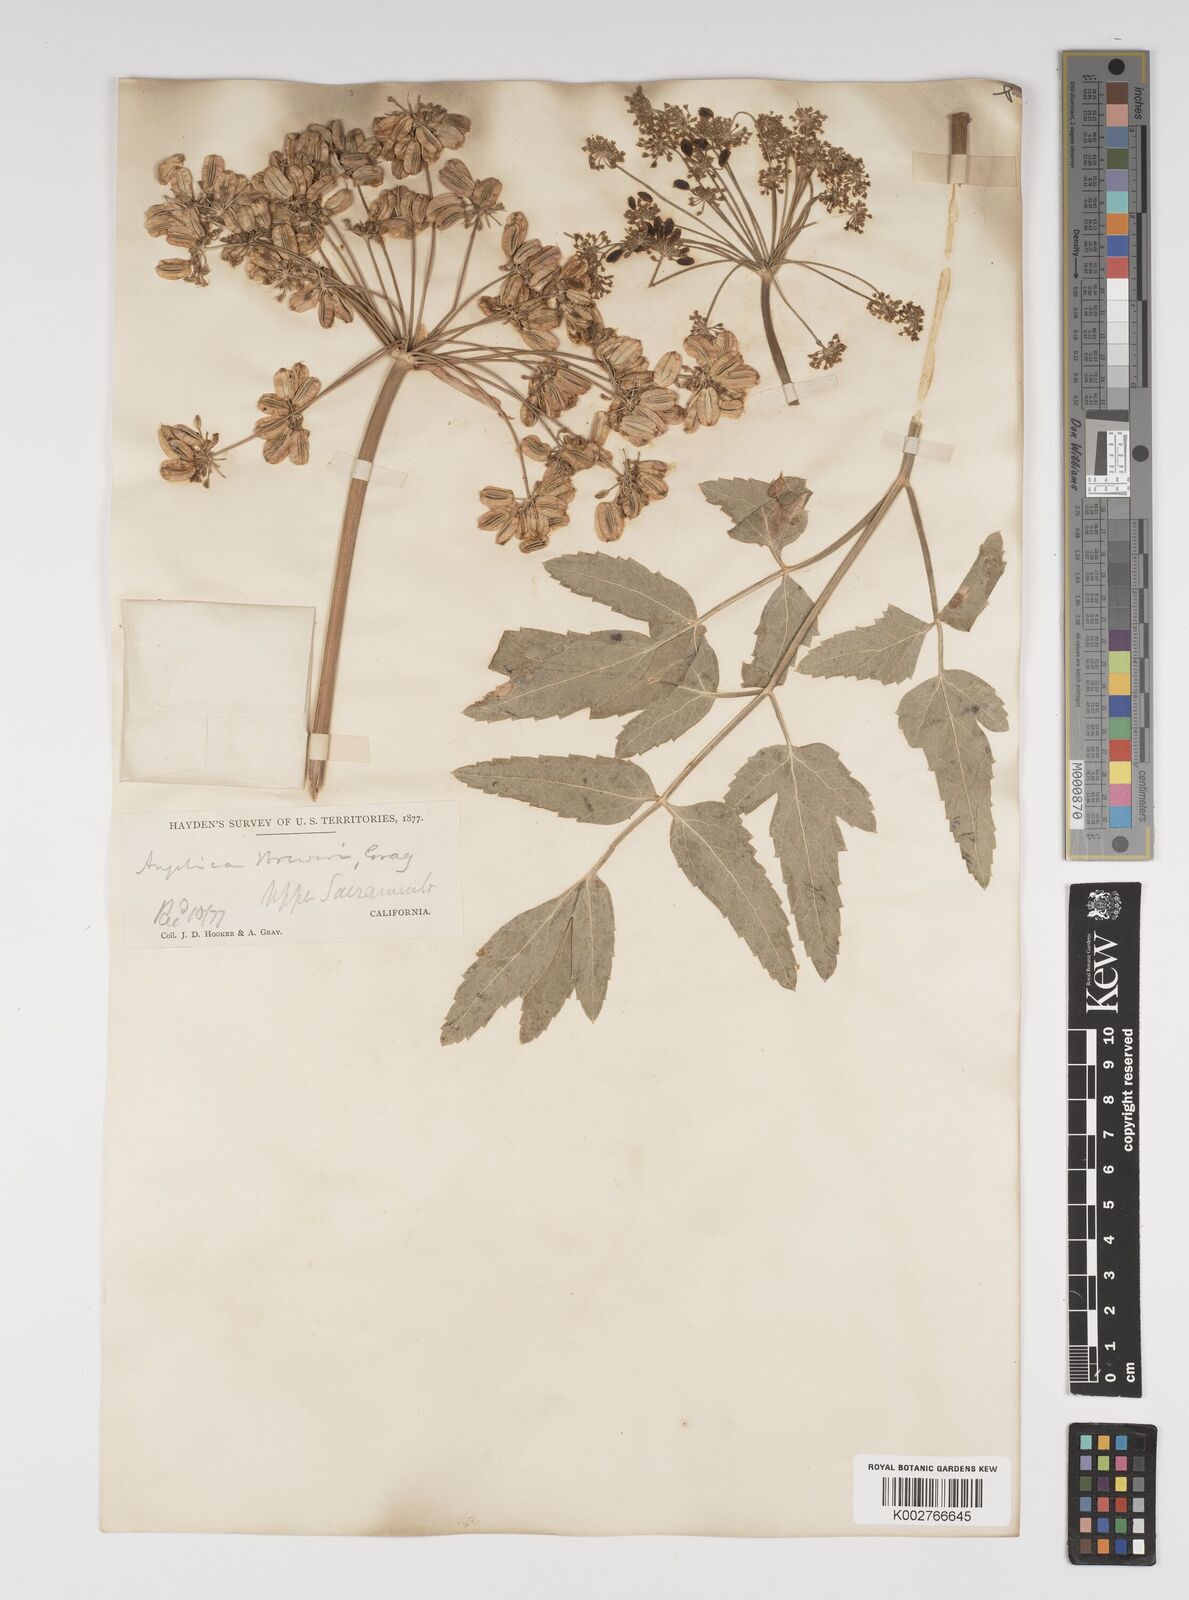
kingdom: Plantae
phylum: Tracheophyta
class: Magnoliopsida
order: Apiales
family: Apiaceae
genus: Angelica
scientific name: Angelica breweri
